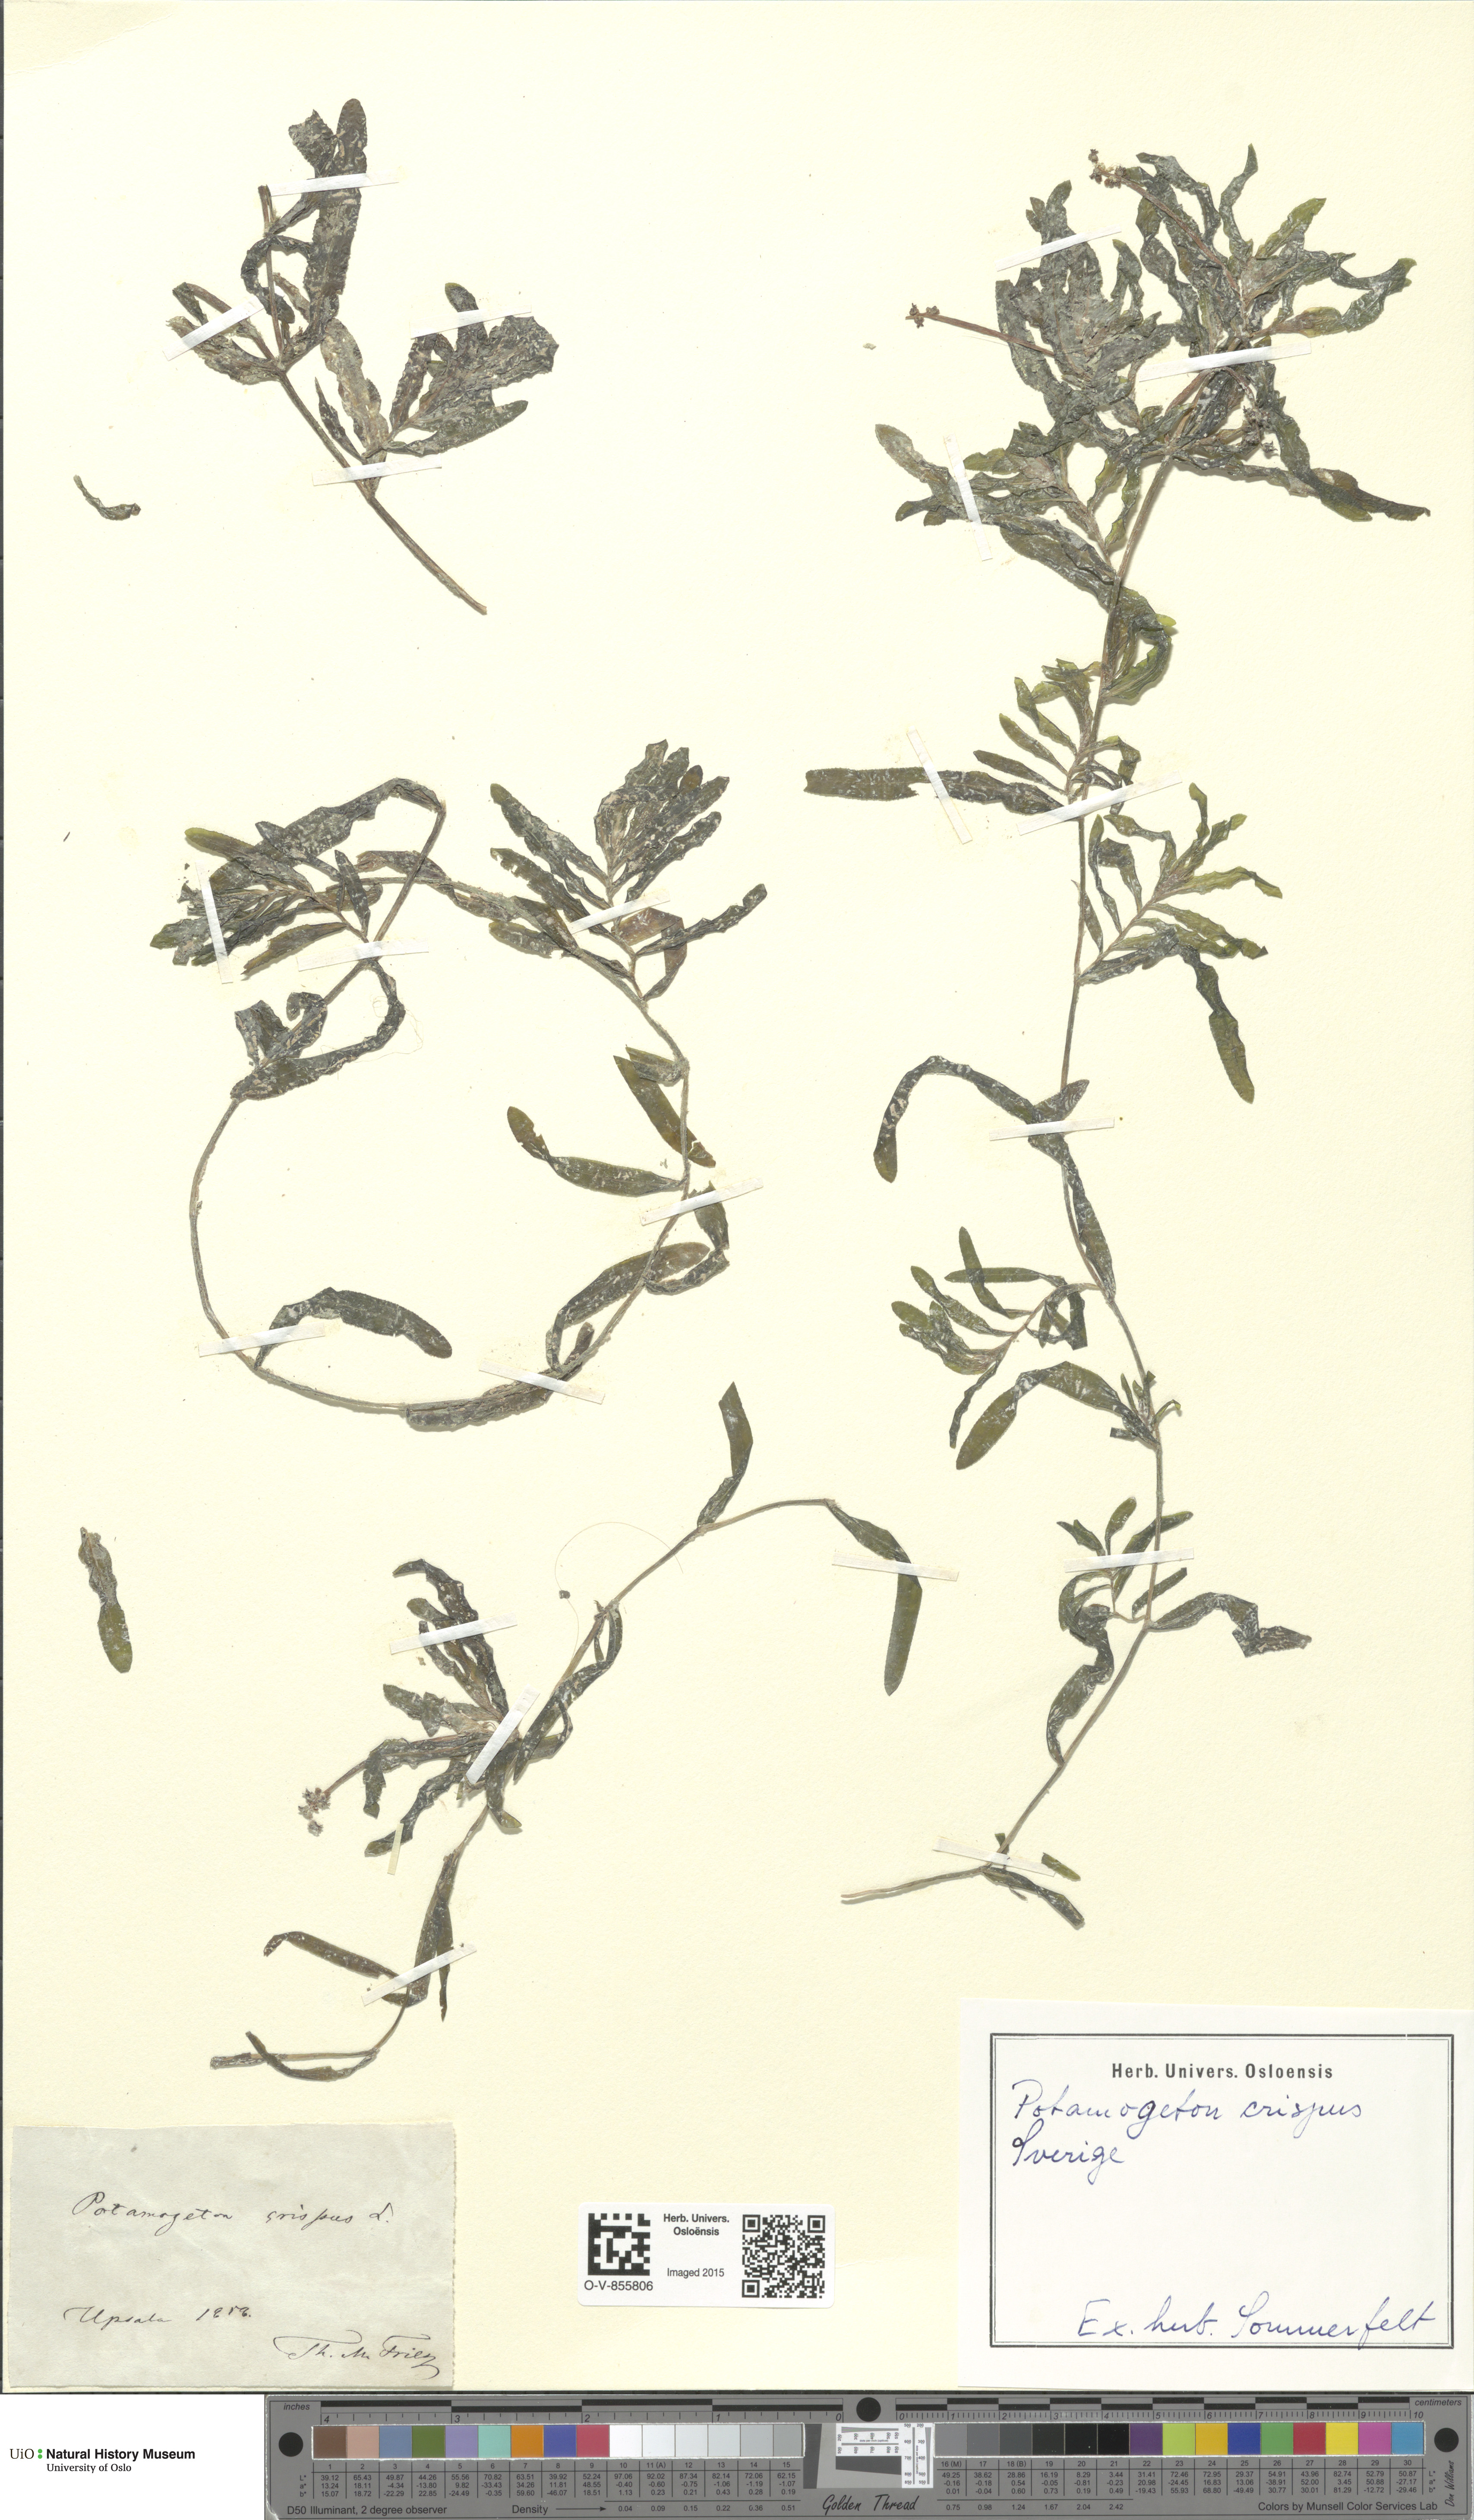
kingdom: Plantae
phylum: Tracheophyta
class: Liliopsida
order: Alismatales
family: Potamogetonaceae
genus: Potamogeton
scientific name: Potamogeton crispus
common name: Curled pondweed
